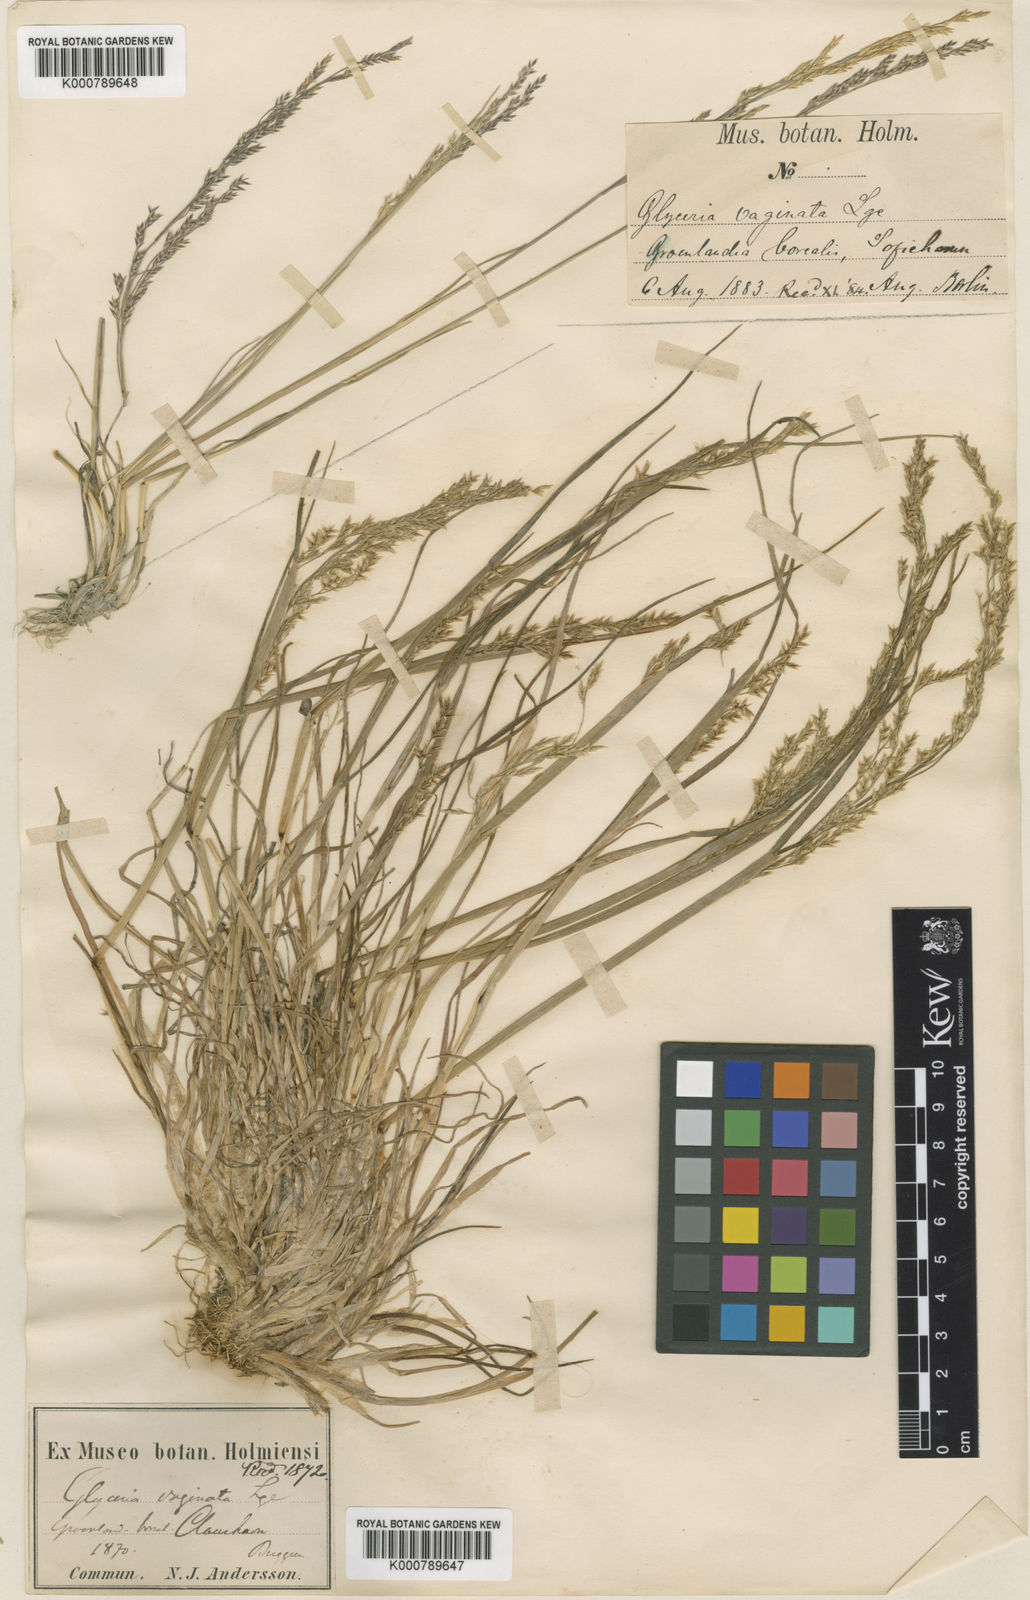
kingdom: Plantae
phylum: Tracheophyta
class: Liliopsida
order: Poales
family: Poaceae
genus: Puccinellia
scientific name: Puccinellia vaginata
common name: Arctic tussock alkaligrass
